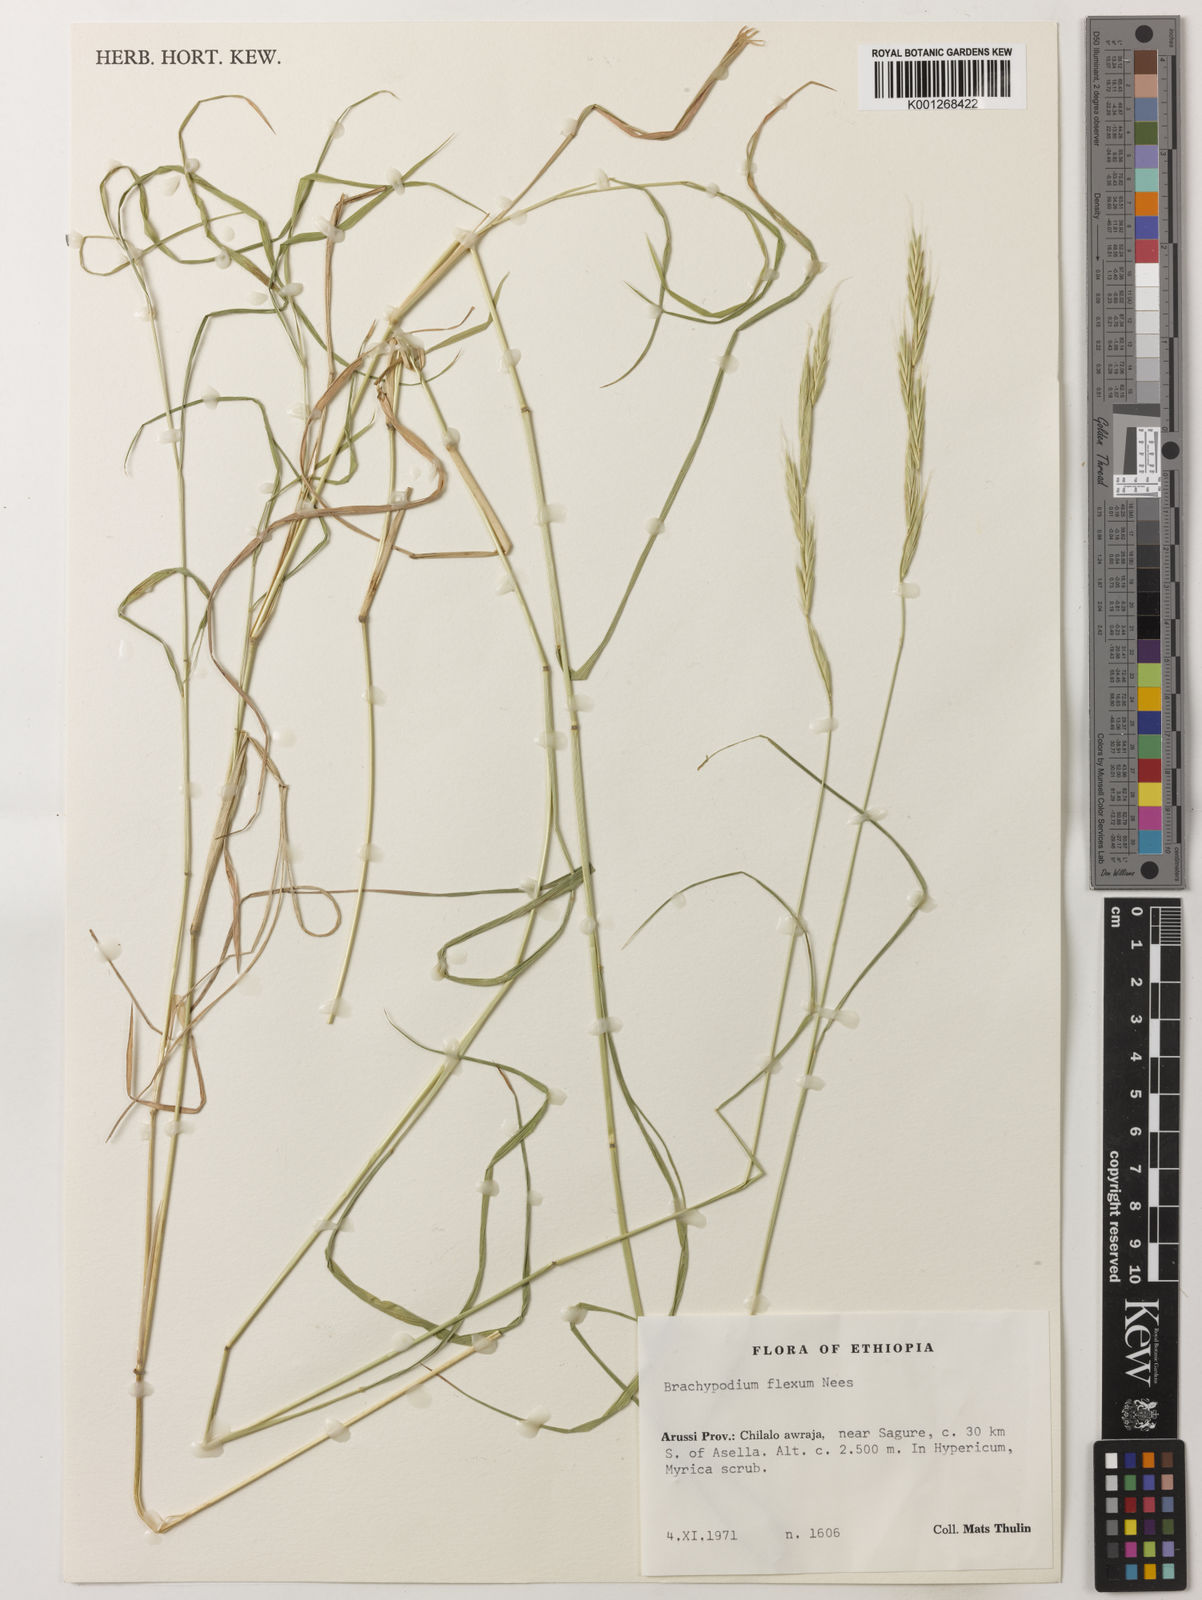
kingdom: Plantae
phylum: Tracheophyta
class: Liliopsida
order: Poales
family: Poaceae
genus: Brachypodium
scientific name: Brachypodium flexum
